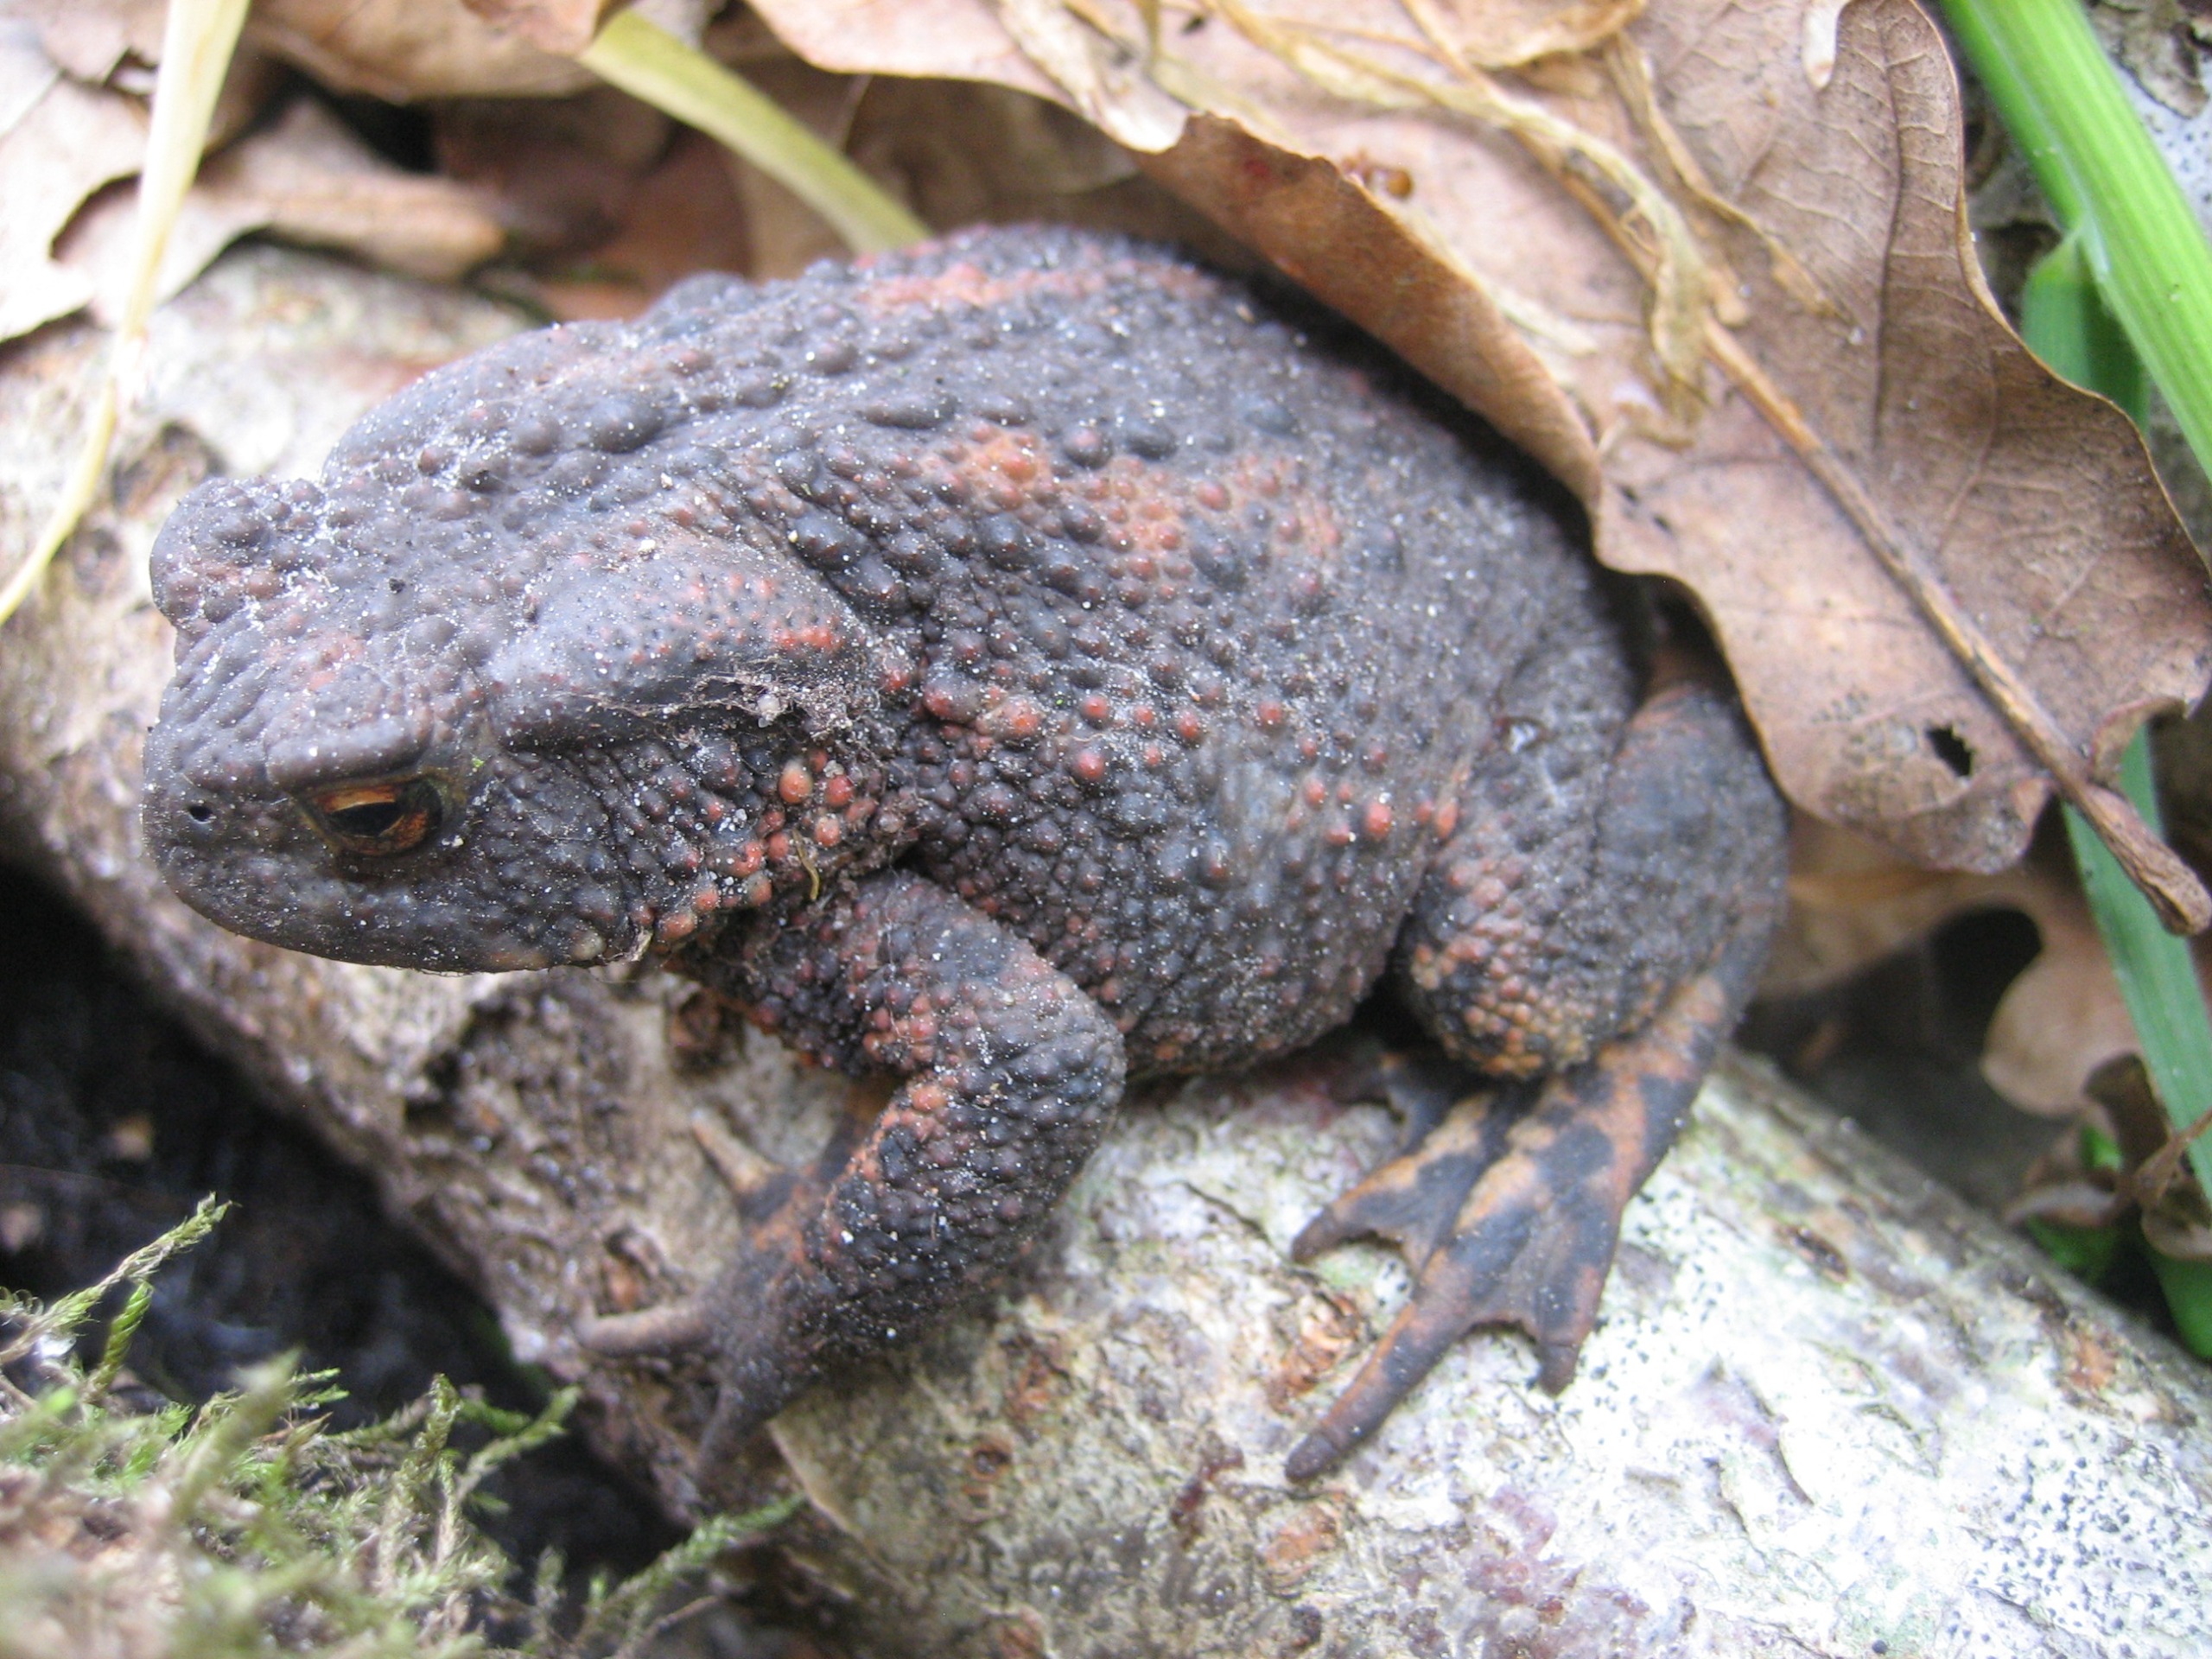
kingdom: Animalia
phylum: Chordata
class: Amphibia
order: Anura
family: Bufonidae
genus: Bufo
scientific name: Bufo bufo
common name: Skrubtudse
